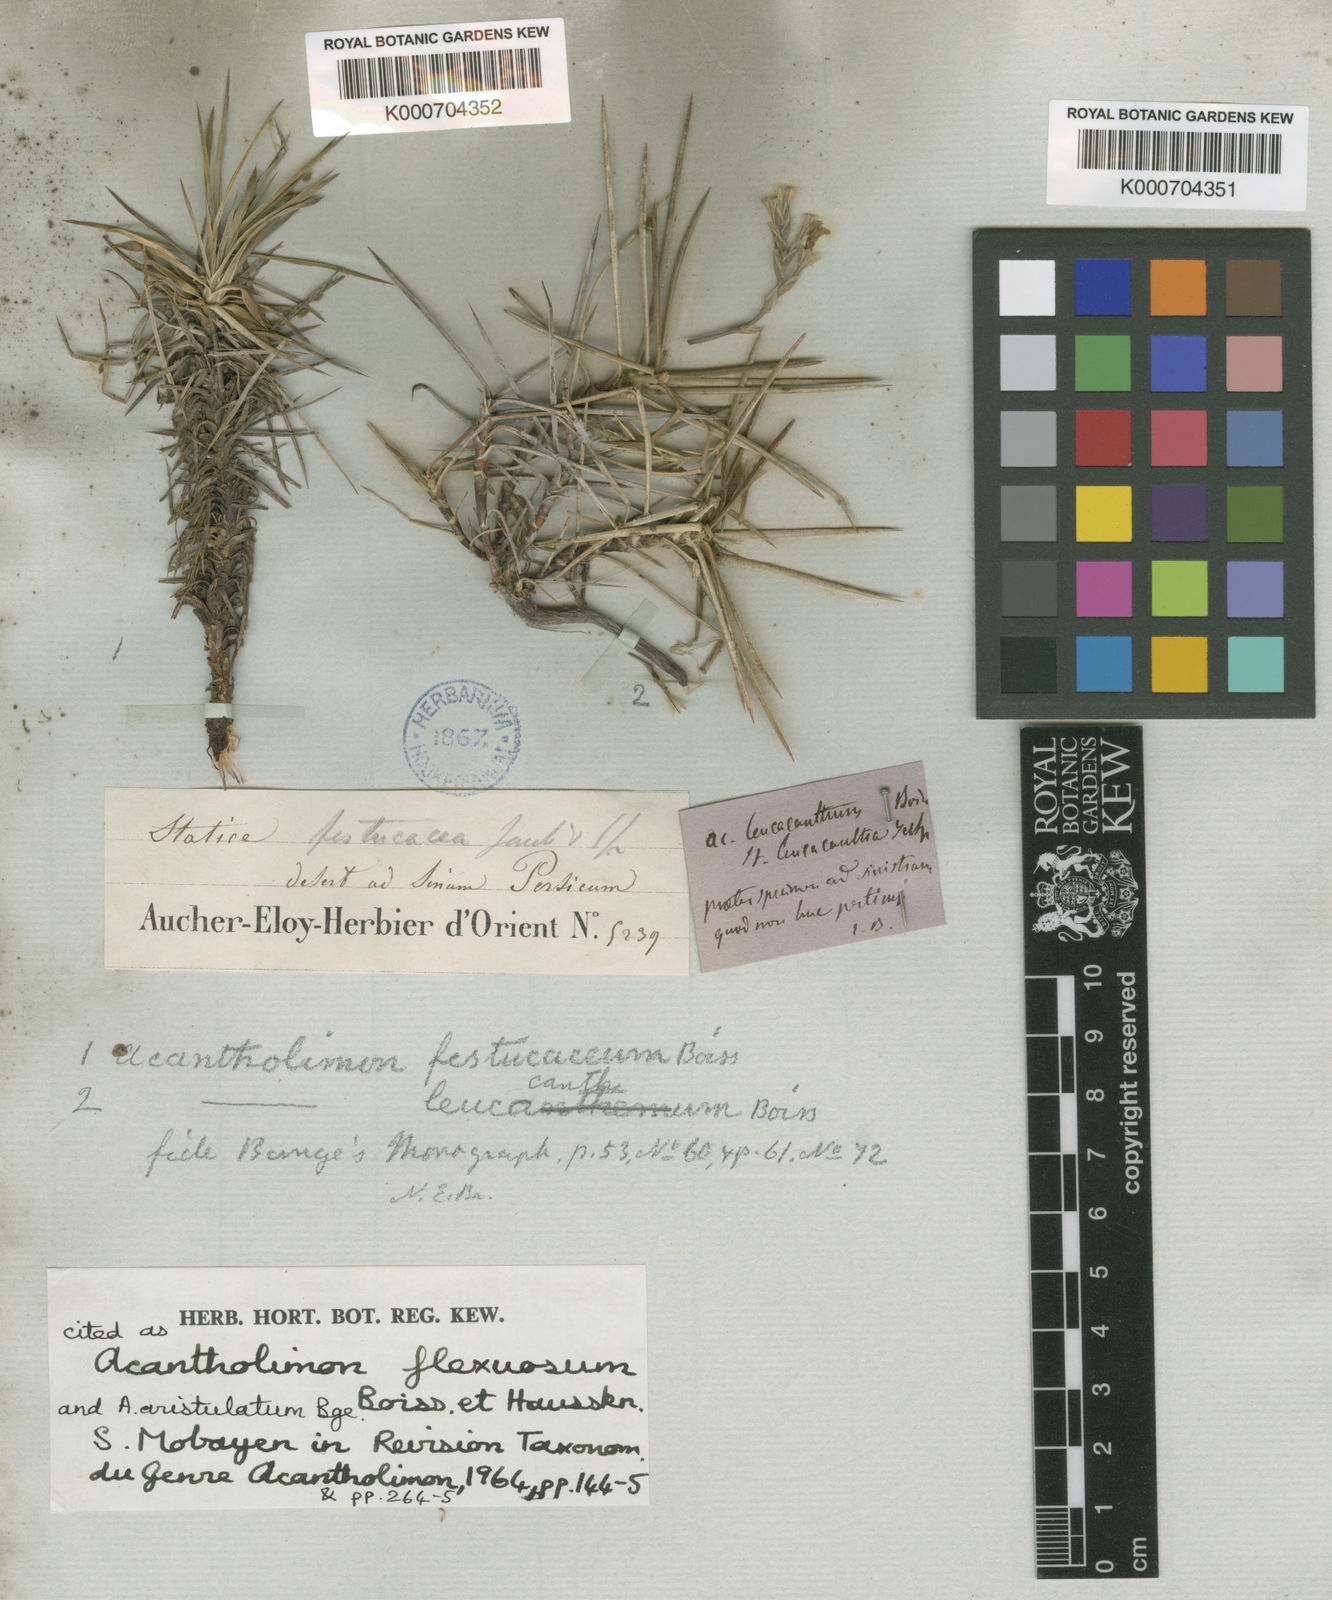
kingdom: Plantae
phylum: Tracheophyta
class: Magnoliopsida
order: Caryophyllales
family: Plumbaginaceae
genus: Acantholimon
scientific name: Acantholimon festucaceum
